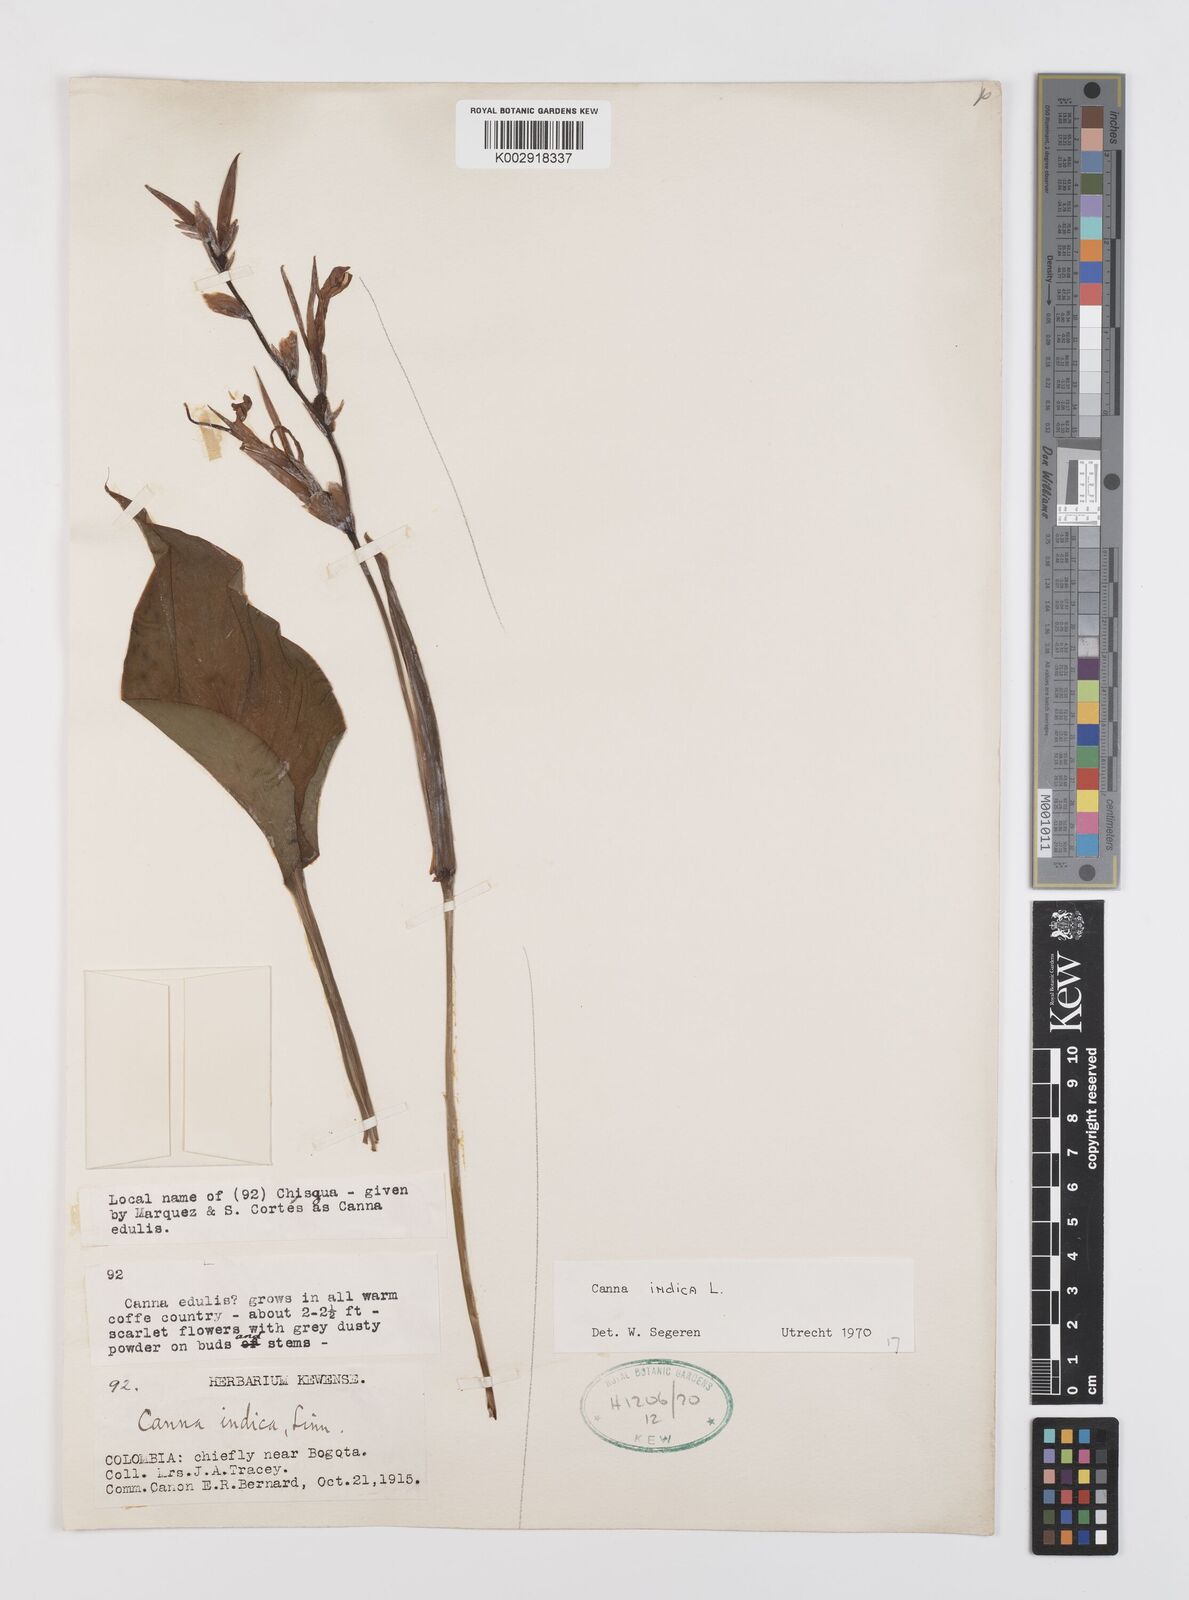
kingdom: Plantae
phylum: Tracheophyta
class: Liliopsida
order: Zingiberales
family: Cannaceae
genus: Canna
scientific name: Canna indica
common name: Indian shot
